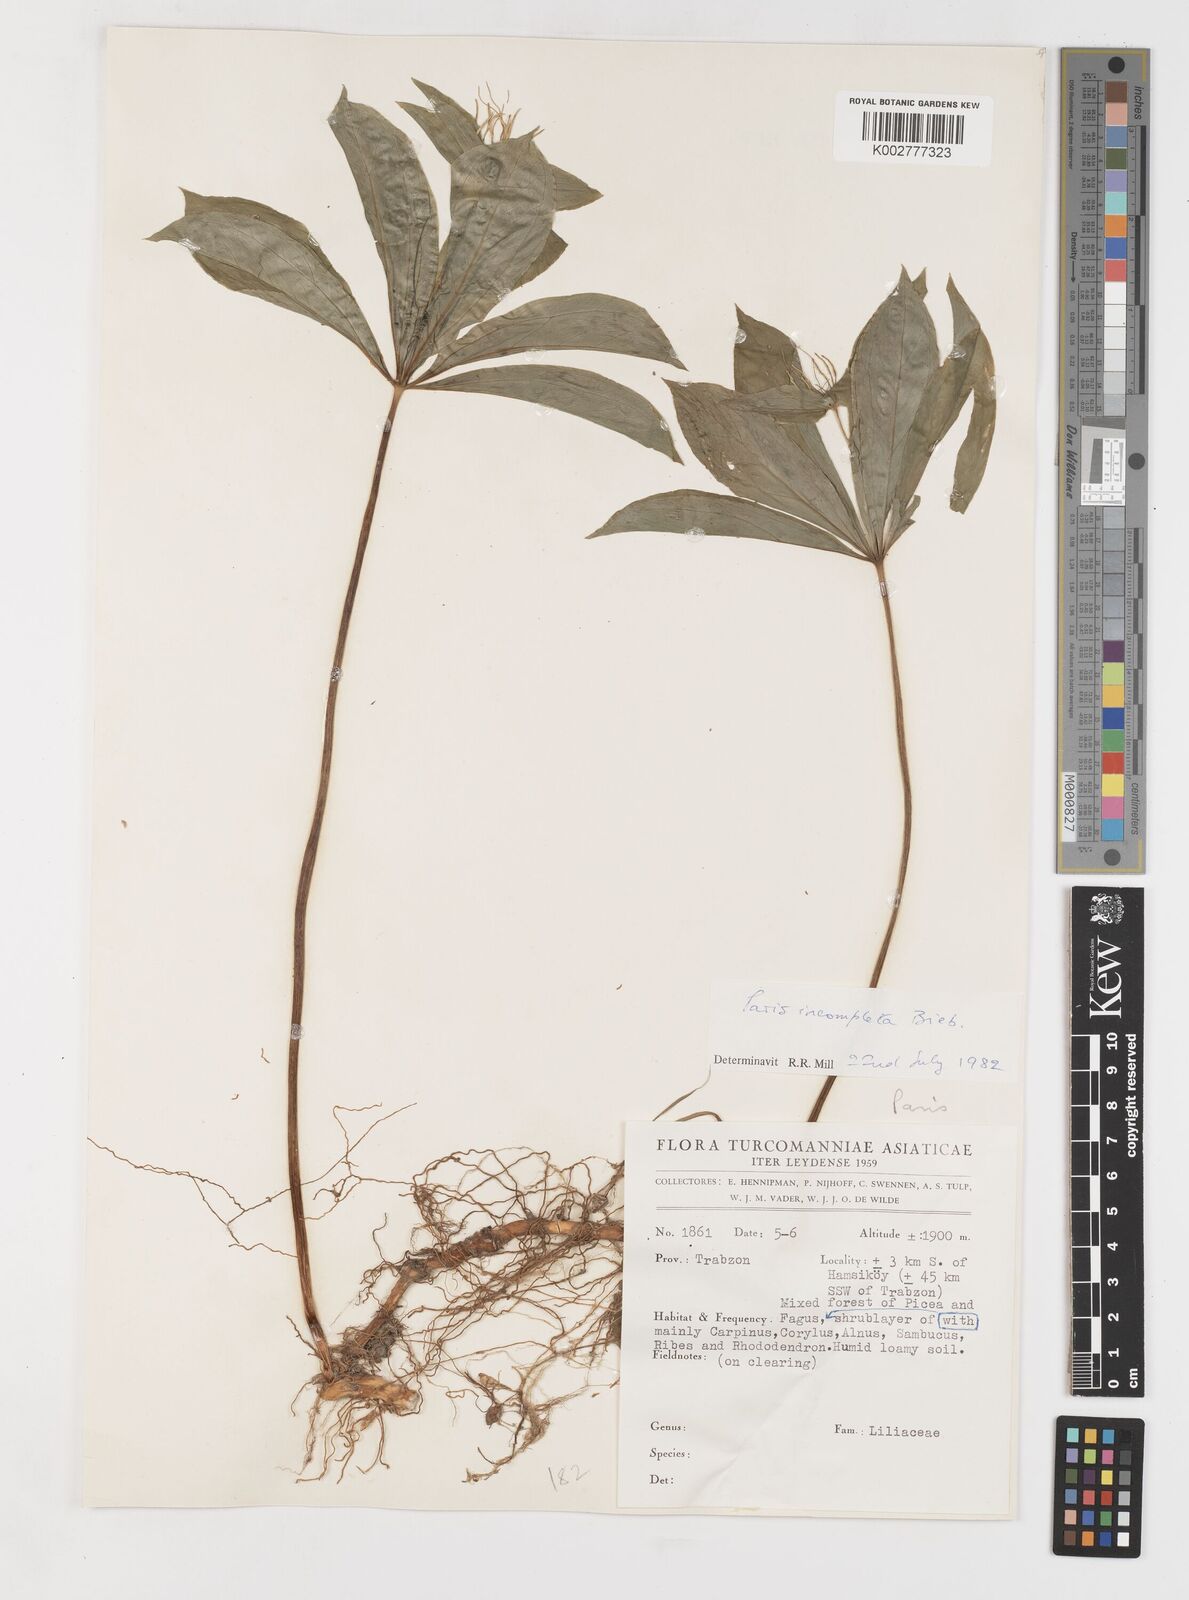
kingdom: Plantae
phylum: Tracheophyta
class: Liliopsida
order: Liliales
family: Melanthiaceae
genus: Paris
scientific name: Paris incompleta
